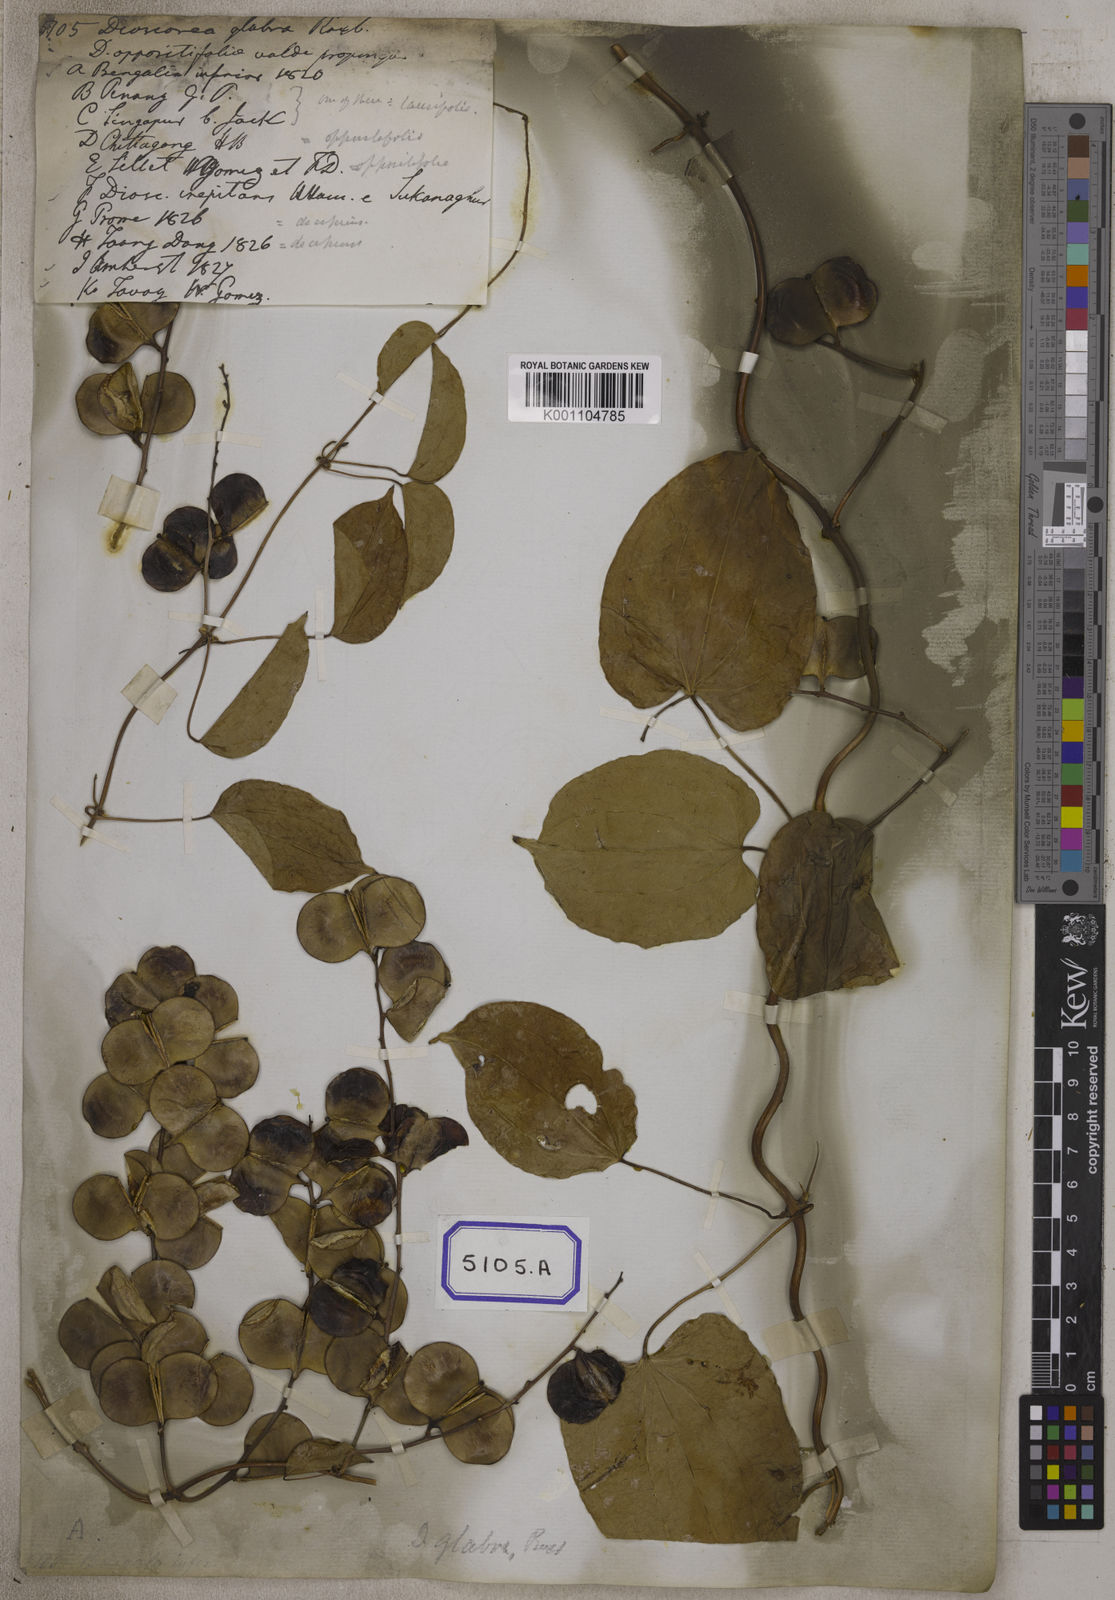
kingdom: Plantae
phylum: Tracheophyta
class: Liliopsida
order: Dioscoreales
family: Dioscoreaceae
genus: Dioscorea
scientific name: Dioscorea glabra
